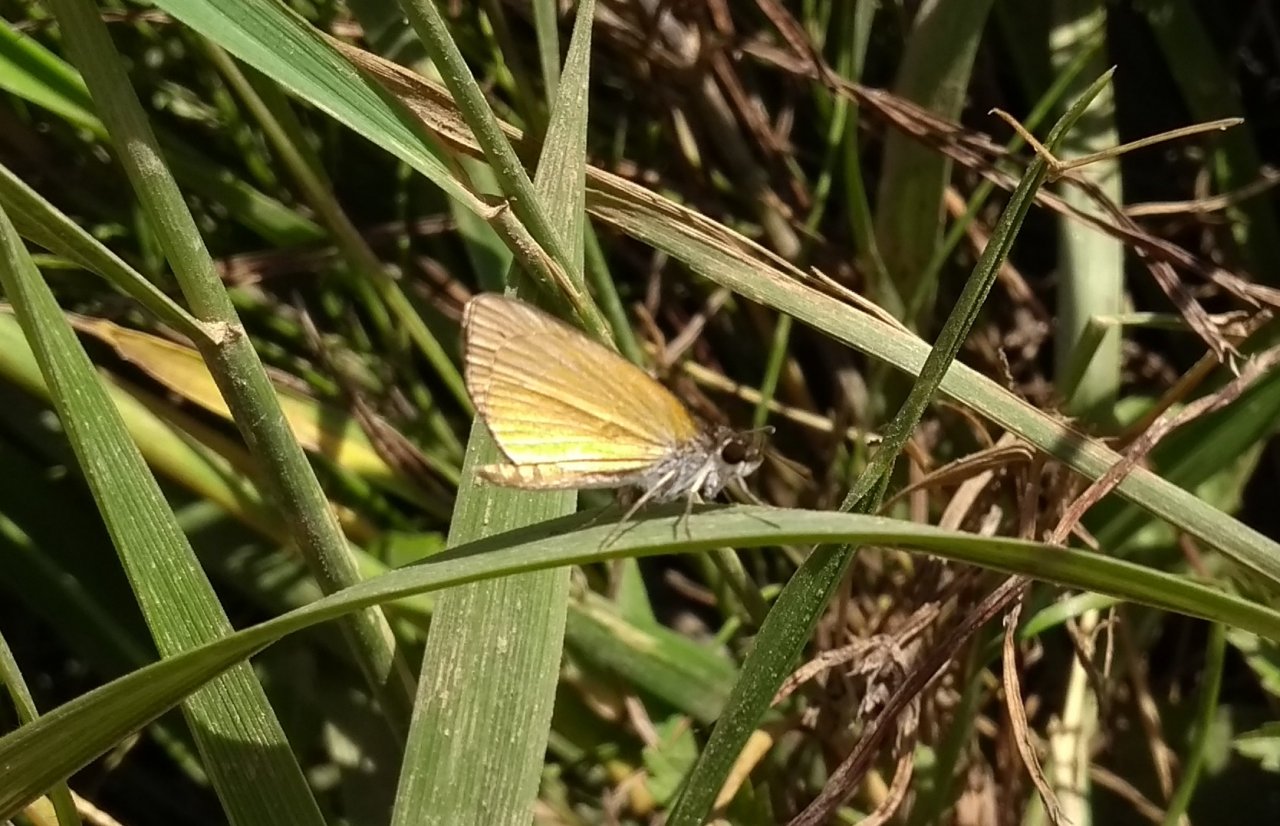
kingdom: Animalia
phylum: Arthropoda
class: Insecta
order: Lepidoptera
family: Hesperiidae
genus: Ancyloxypha
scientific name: Ancyloxypha numitor
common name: Least Skipper
